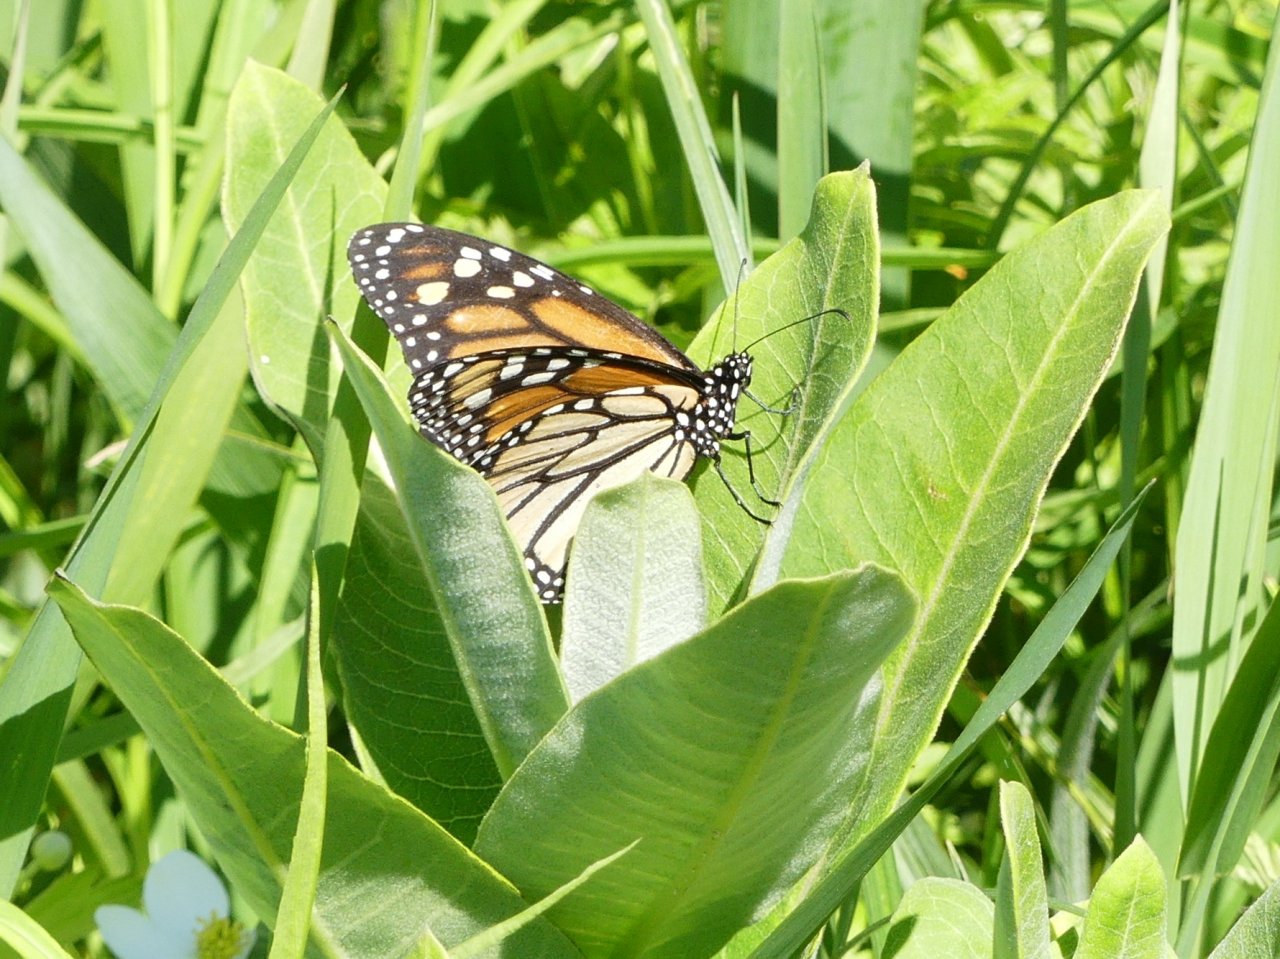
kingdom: Animalia
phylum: Arthropoda
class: Insecta
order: Lepidoptera
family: Nymphalidae
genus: Danaus
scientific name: Danaus plexippus
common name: Monarch
